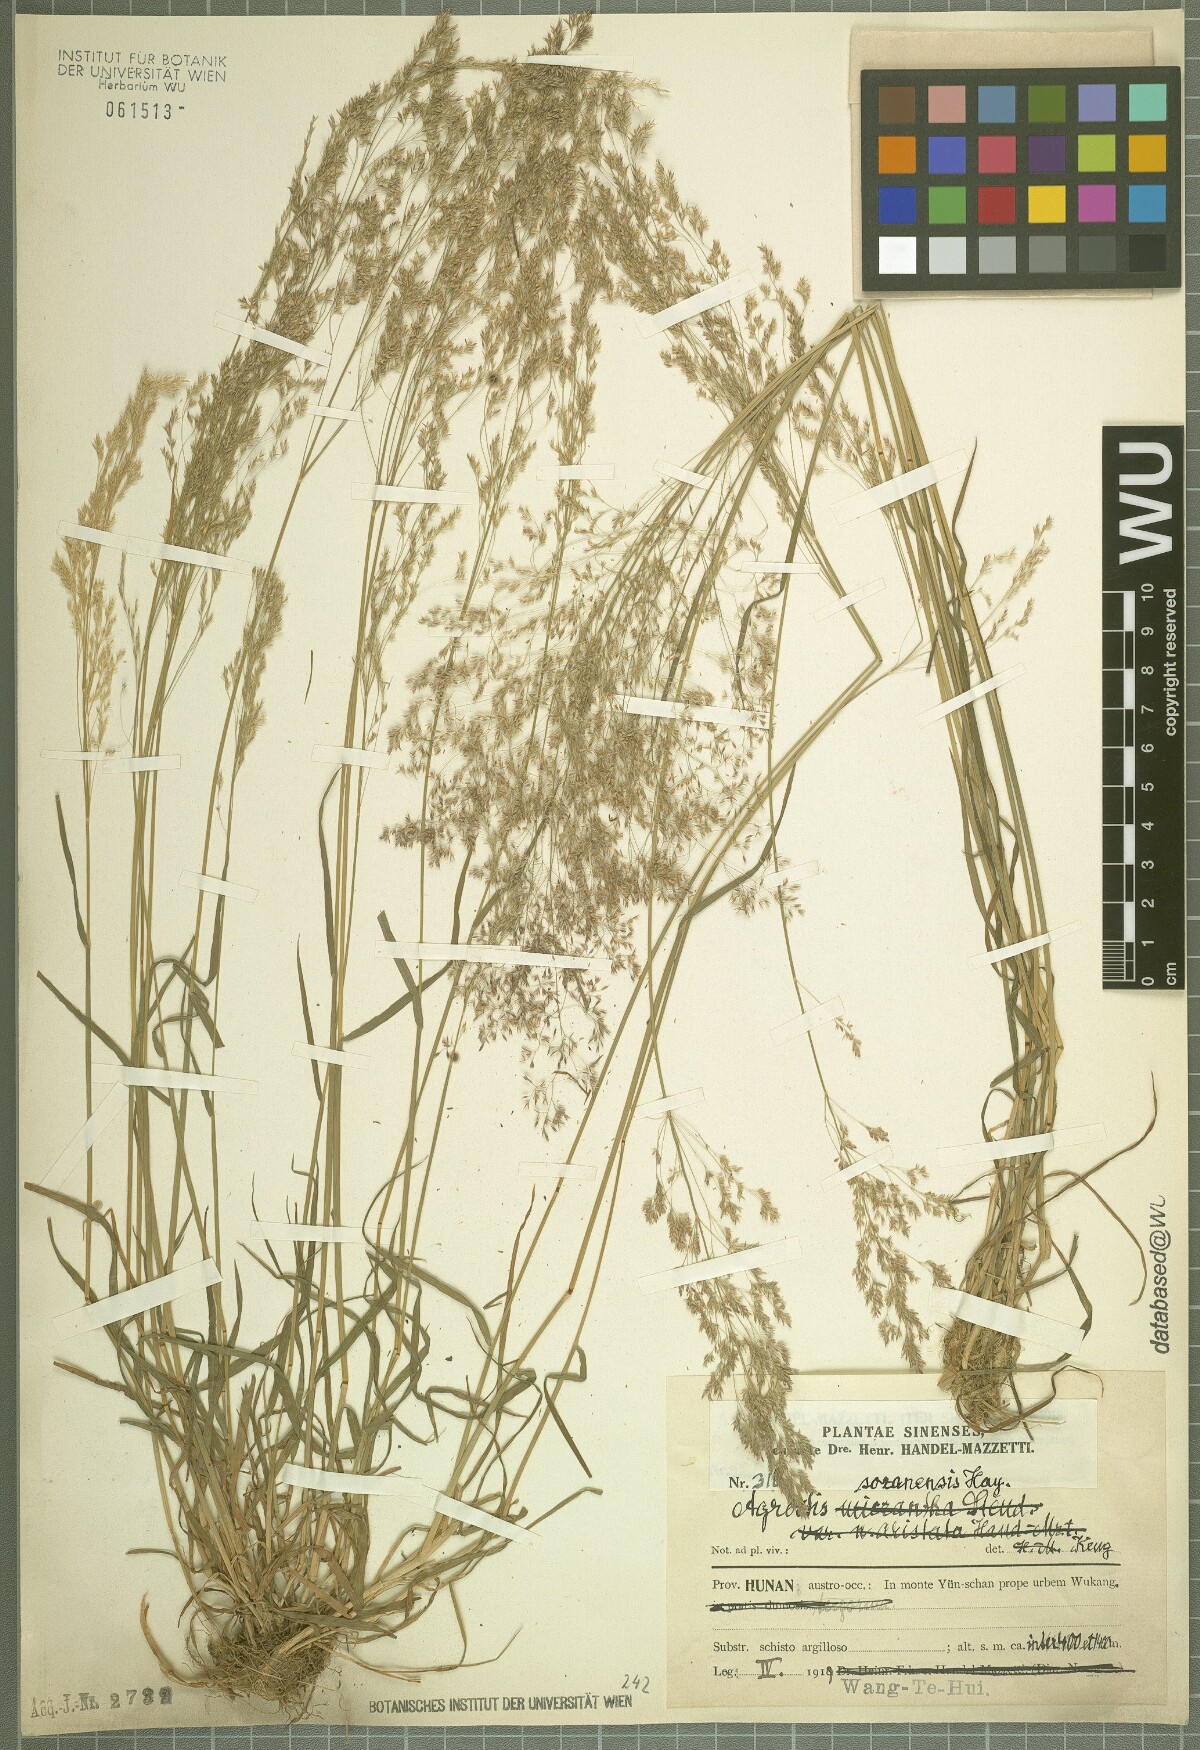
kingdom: Plantae
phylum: Tracheophyta
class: Liliopsida
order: Poales
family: Poaceae
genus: Agrostis
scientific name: Agrostis infirma
